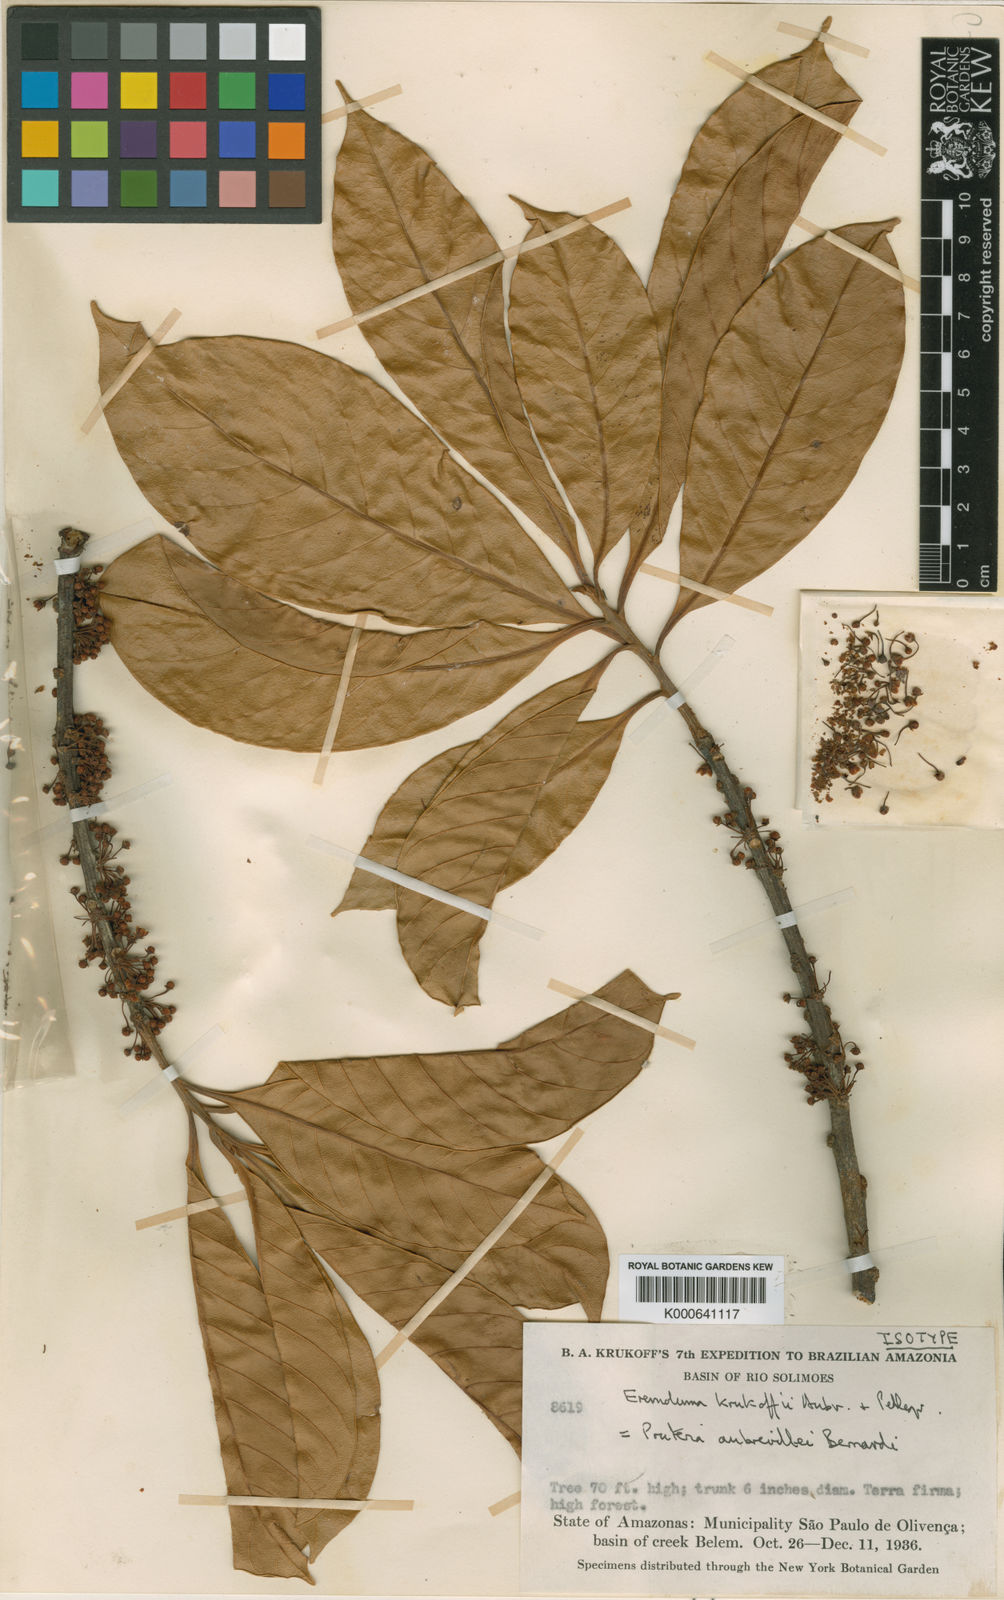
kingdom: Plantae
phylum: Tracheophyta
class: Magnoliopsida
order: Ericales
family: Sapotaceae
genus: Pouteria
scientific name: Pouteria aubrevillei
